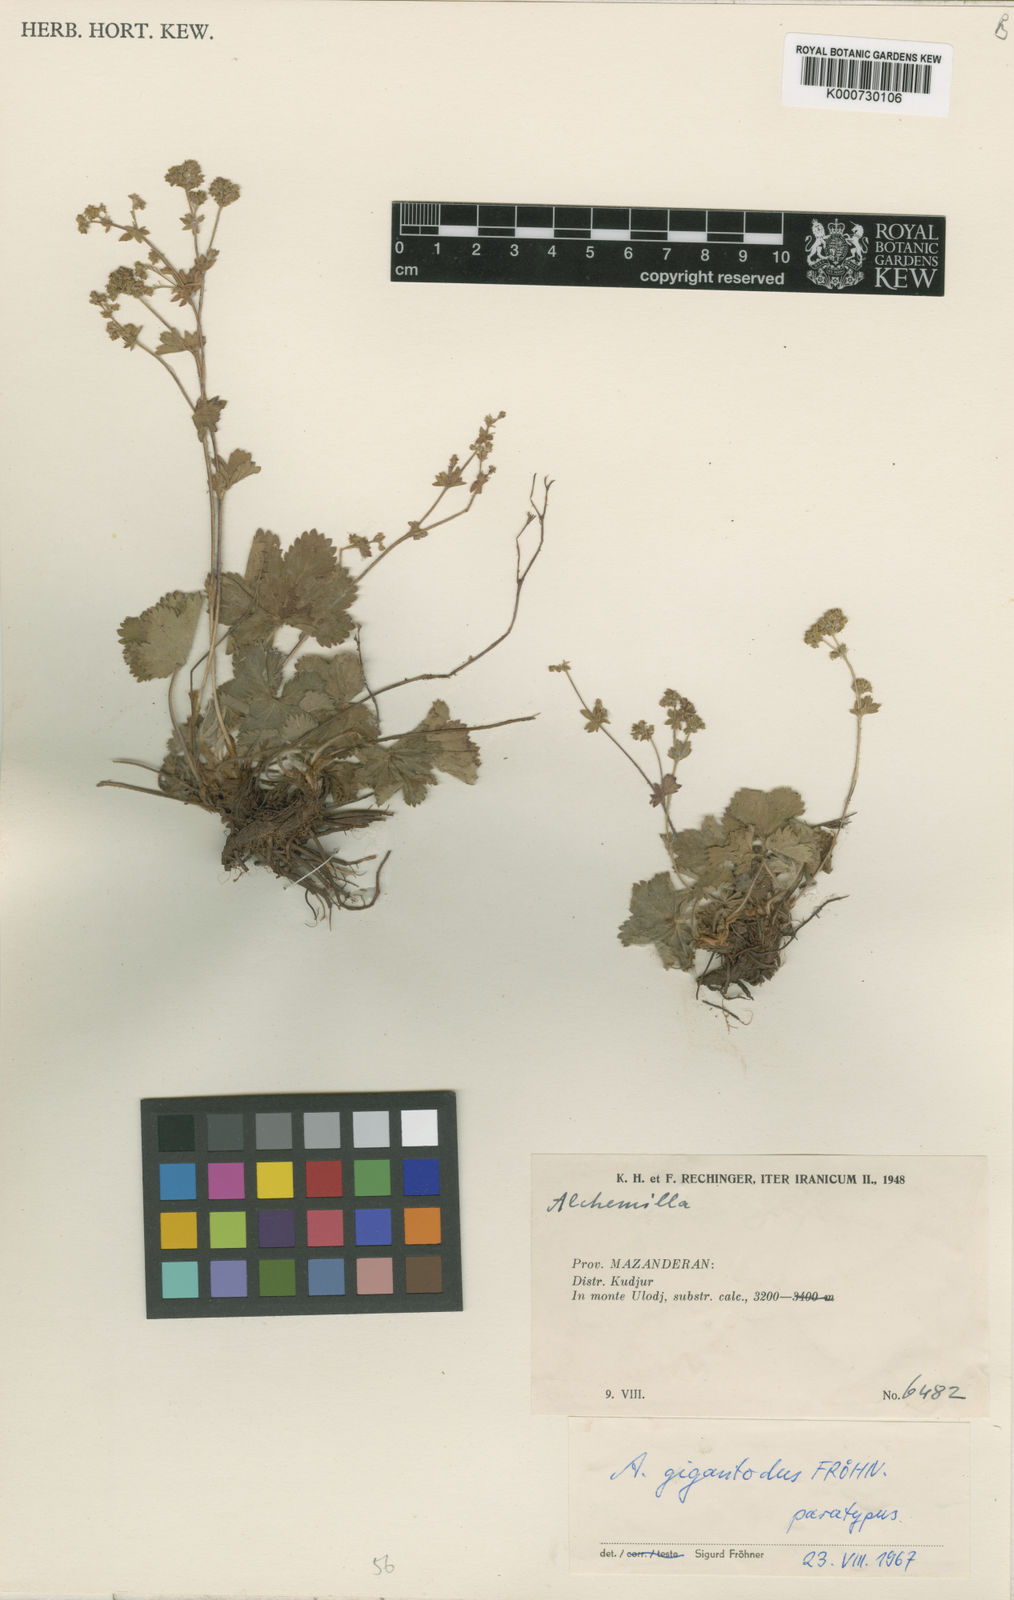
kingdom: Plantae
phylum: Tracheophyta
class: Magnoliopsida
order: Rosales
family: Rosaceae
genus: Alchemilla
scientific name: Alchemilla gigantodus
